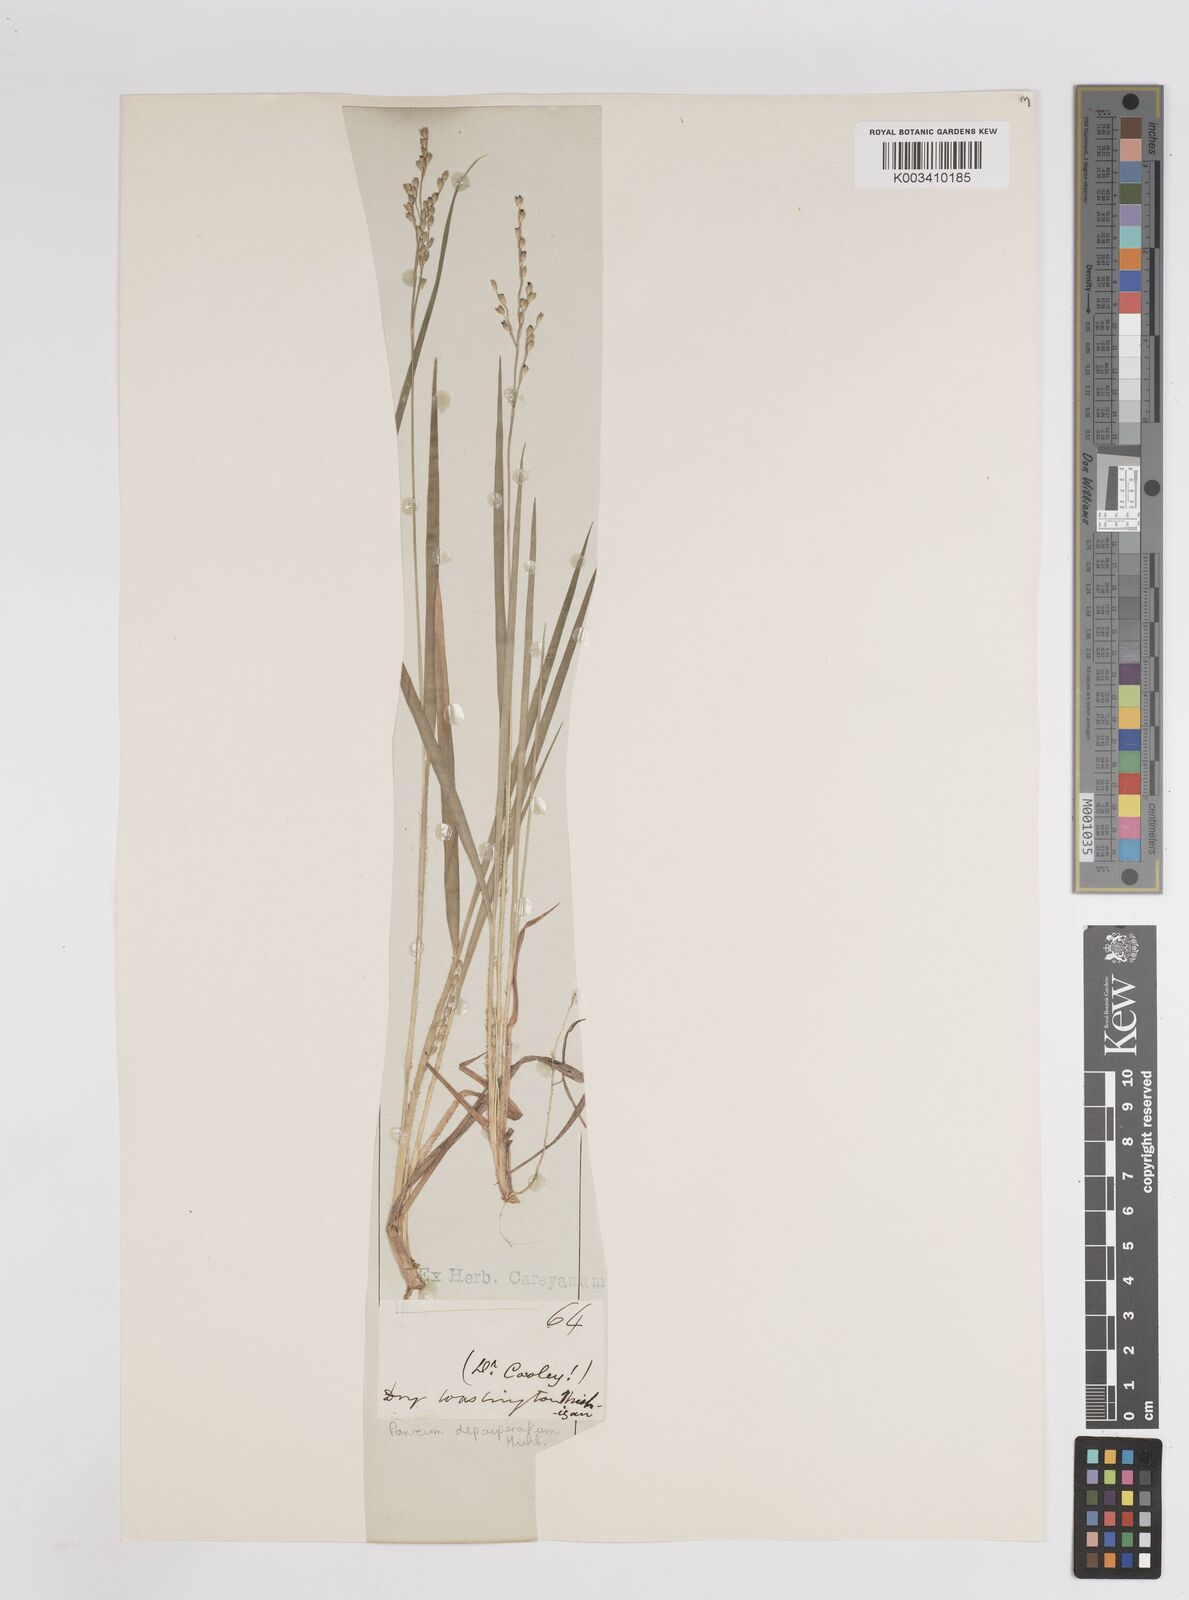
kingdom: Plantae
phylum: Tracheophyta
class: Liliopsida
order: Poales
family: Poaceae
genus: Dichanthelium
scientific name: Dichanthelium depauperatum
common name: Depauperate panicgrass
